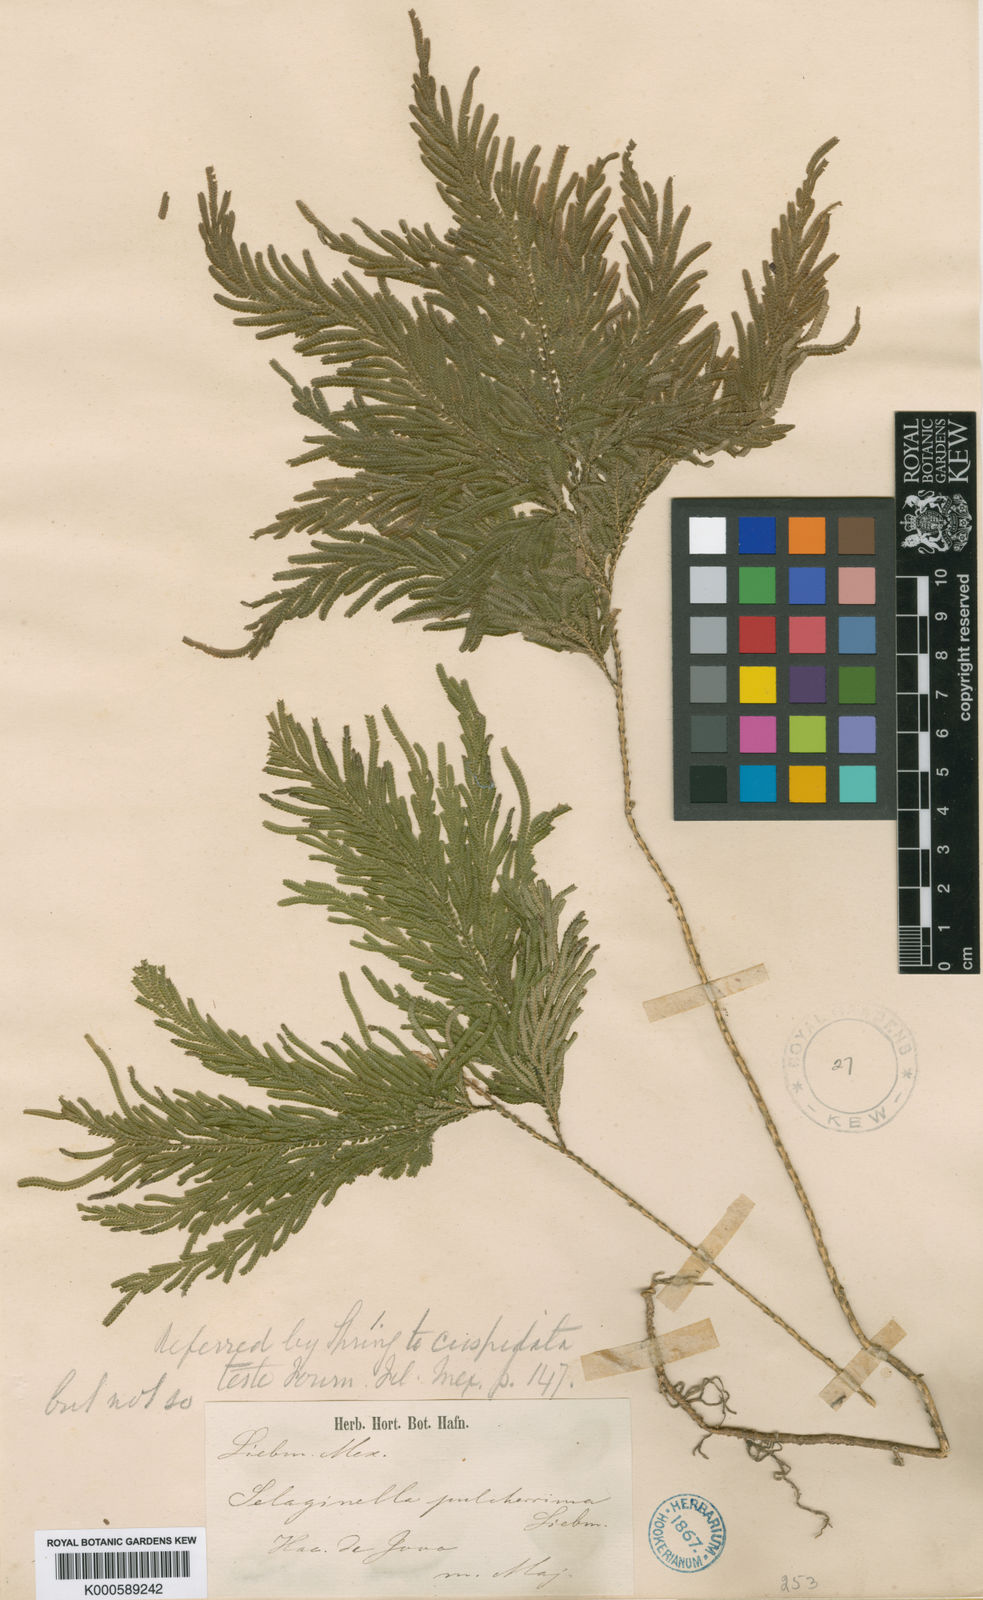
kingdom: Plantae
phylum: Tracheophyta
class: Lycopodiopsida
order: Selaginellales
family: Selaginellaceae
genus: Selaginella
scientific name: Selaginella pulcherrima
